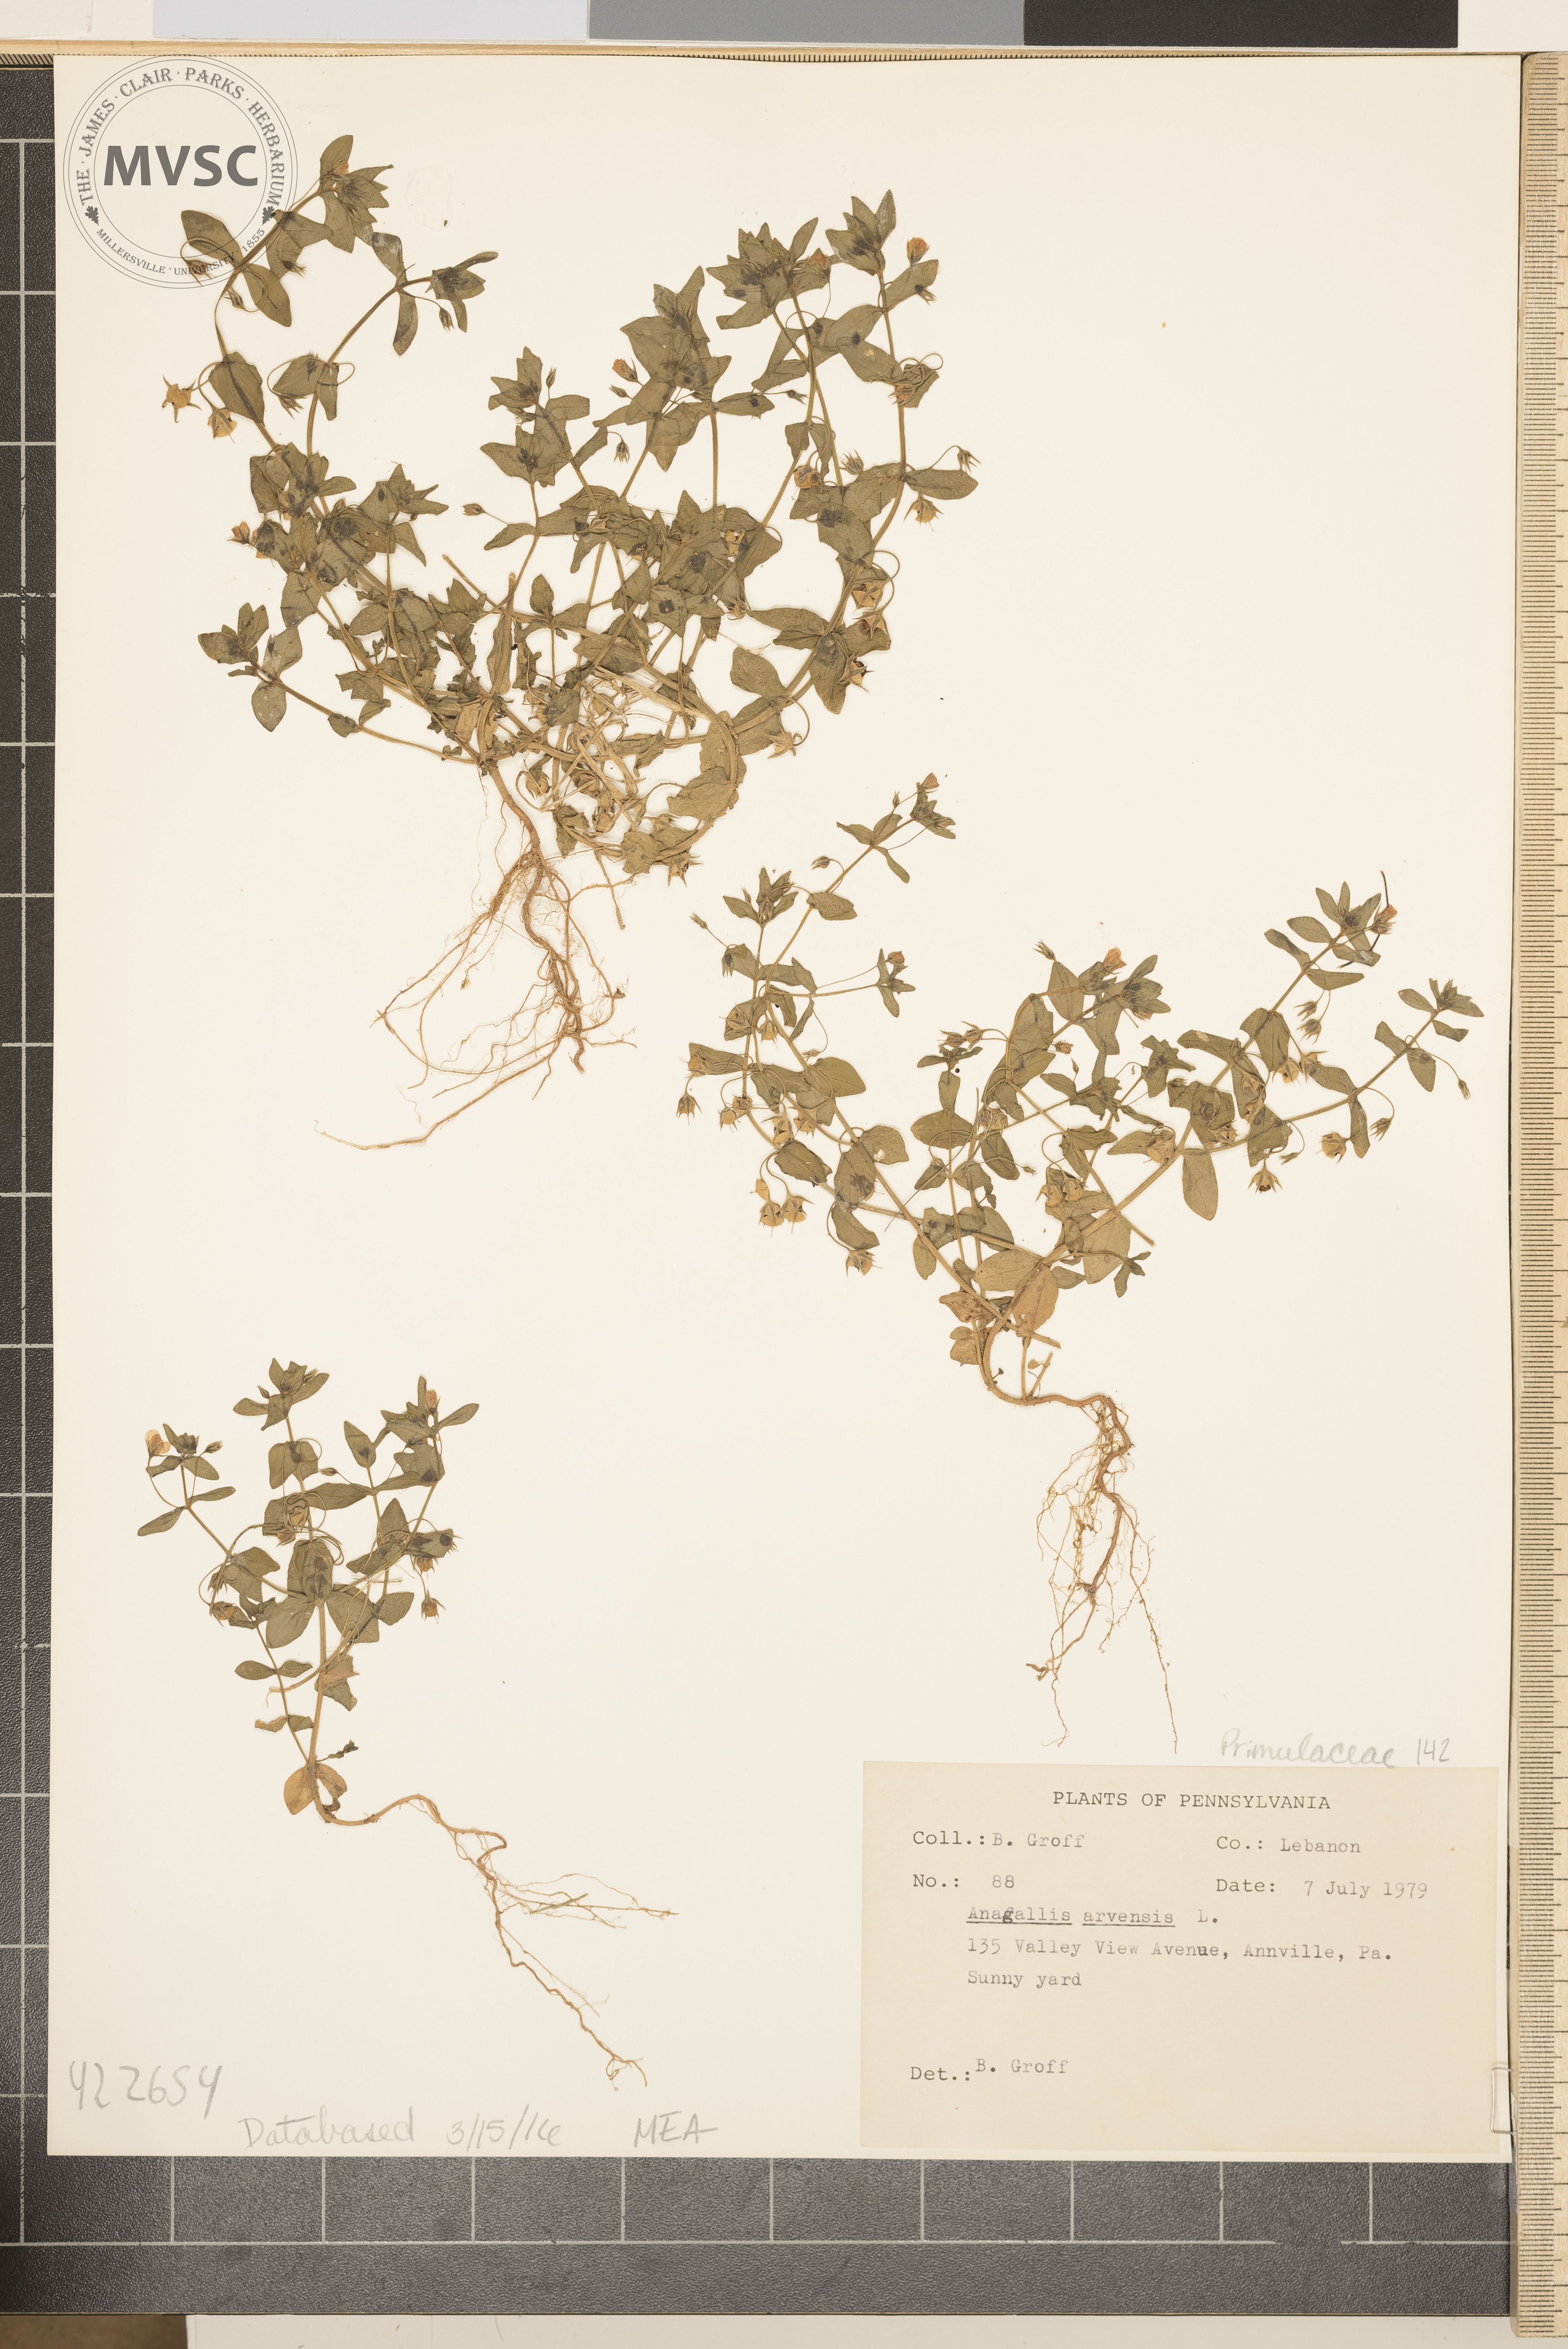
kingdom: Plantae
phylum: Tracheophyta
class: Magnoliopsida
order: Ericales
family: Primulaceae
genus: Lysimachia
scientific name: Lysimachia arvensis
